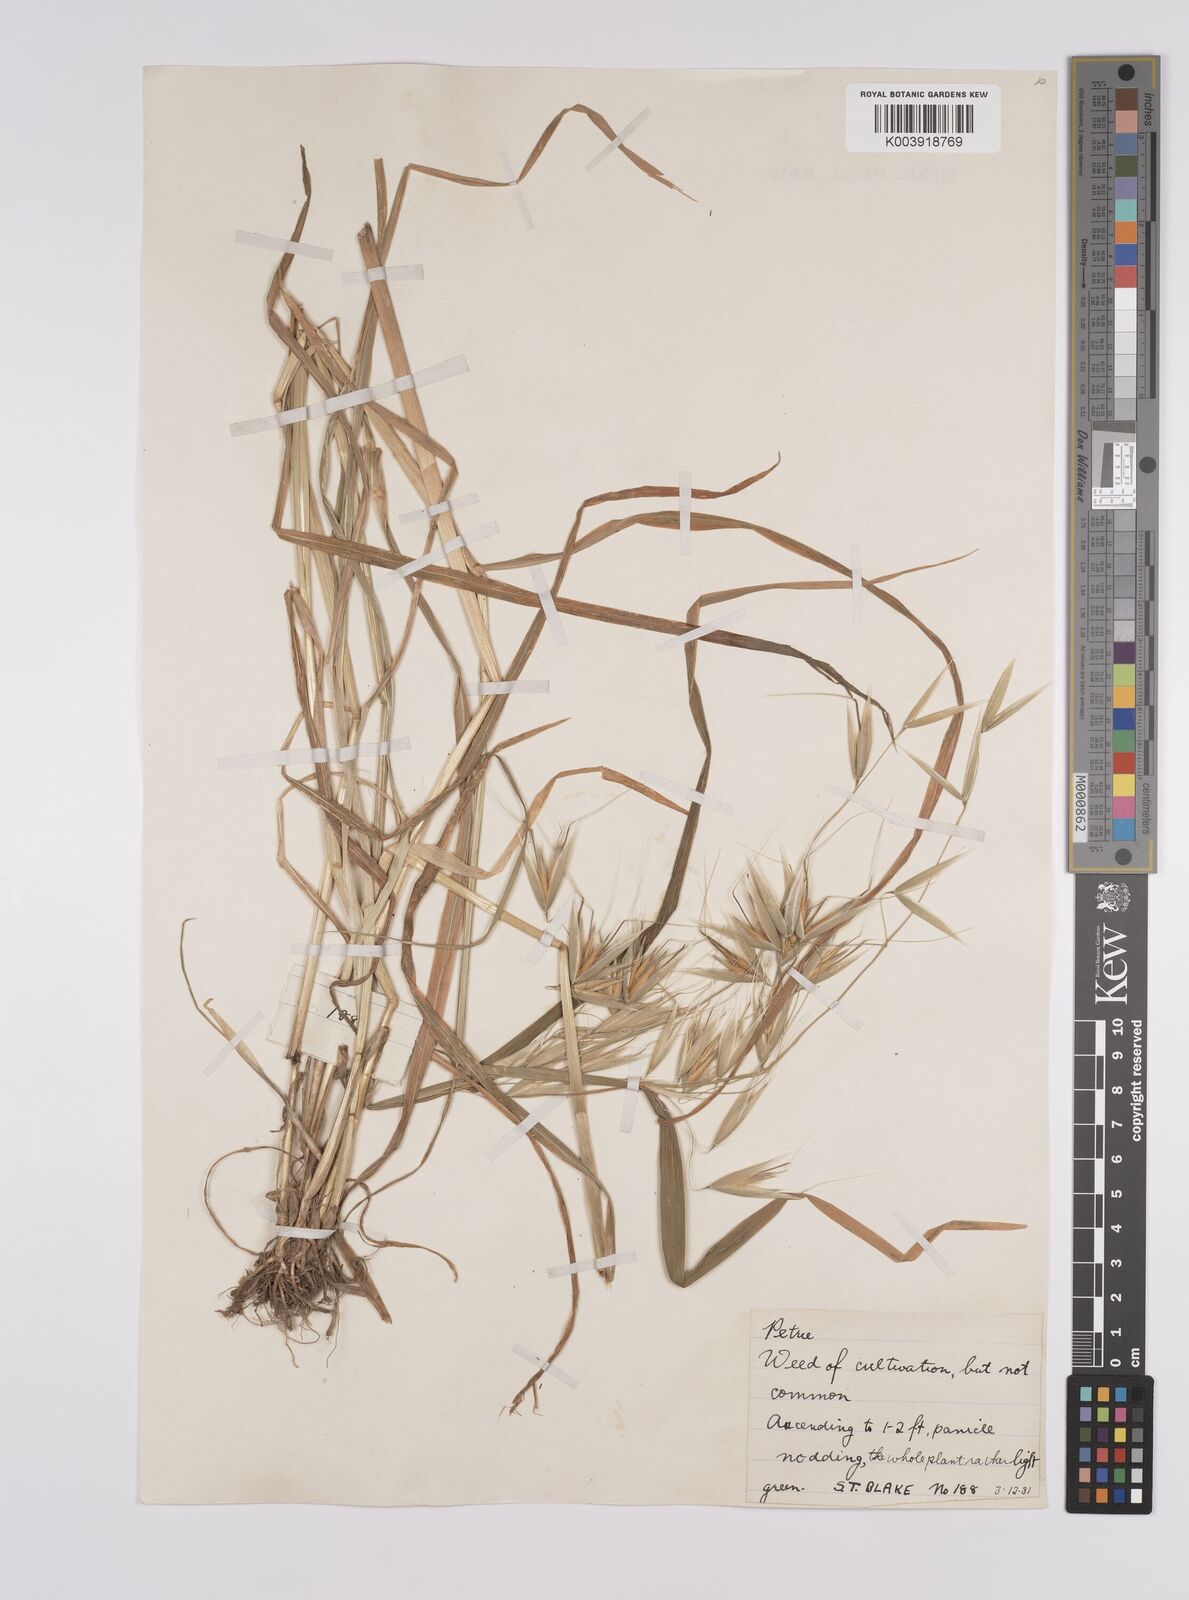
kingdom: Plantae
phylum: Tracheophyta
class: Liliopsida
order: Poales
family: Poaceae
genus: Avena
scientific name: Avena fatua
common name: Wild oat
